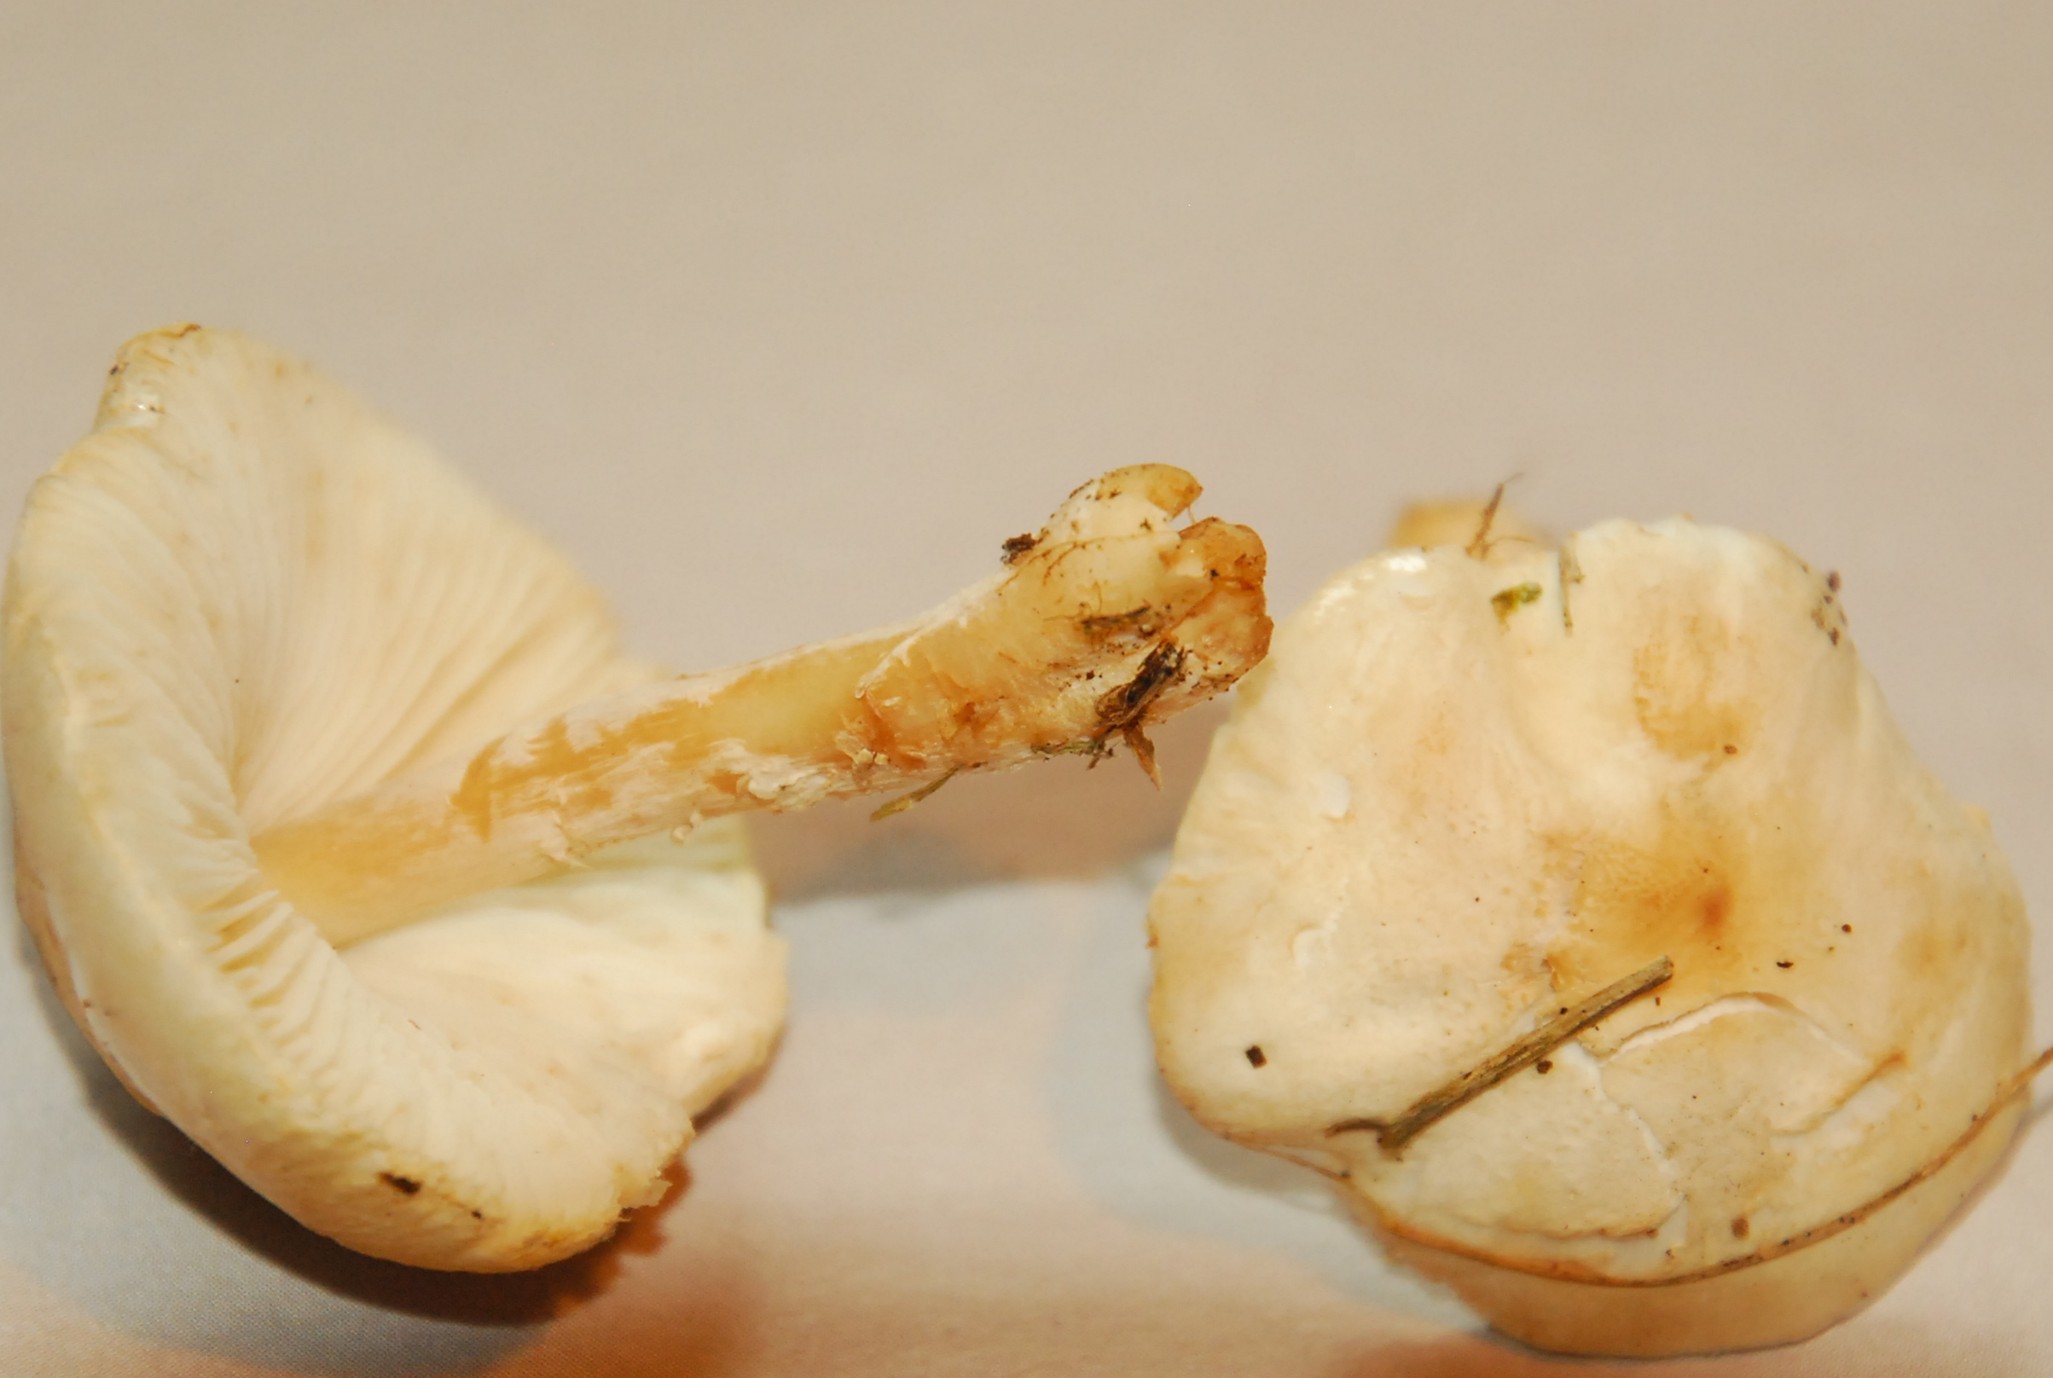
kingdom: Fungi
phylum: Basidiomycota
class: Agaricomycetes
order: Agaricales
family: Agaricaceae
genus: Lepiota
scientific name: Lepiota erminea
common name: hvid parasolhat
